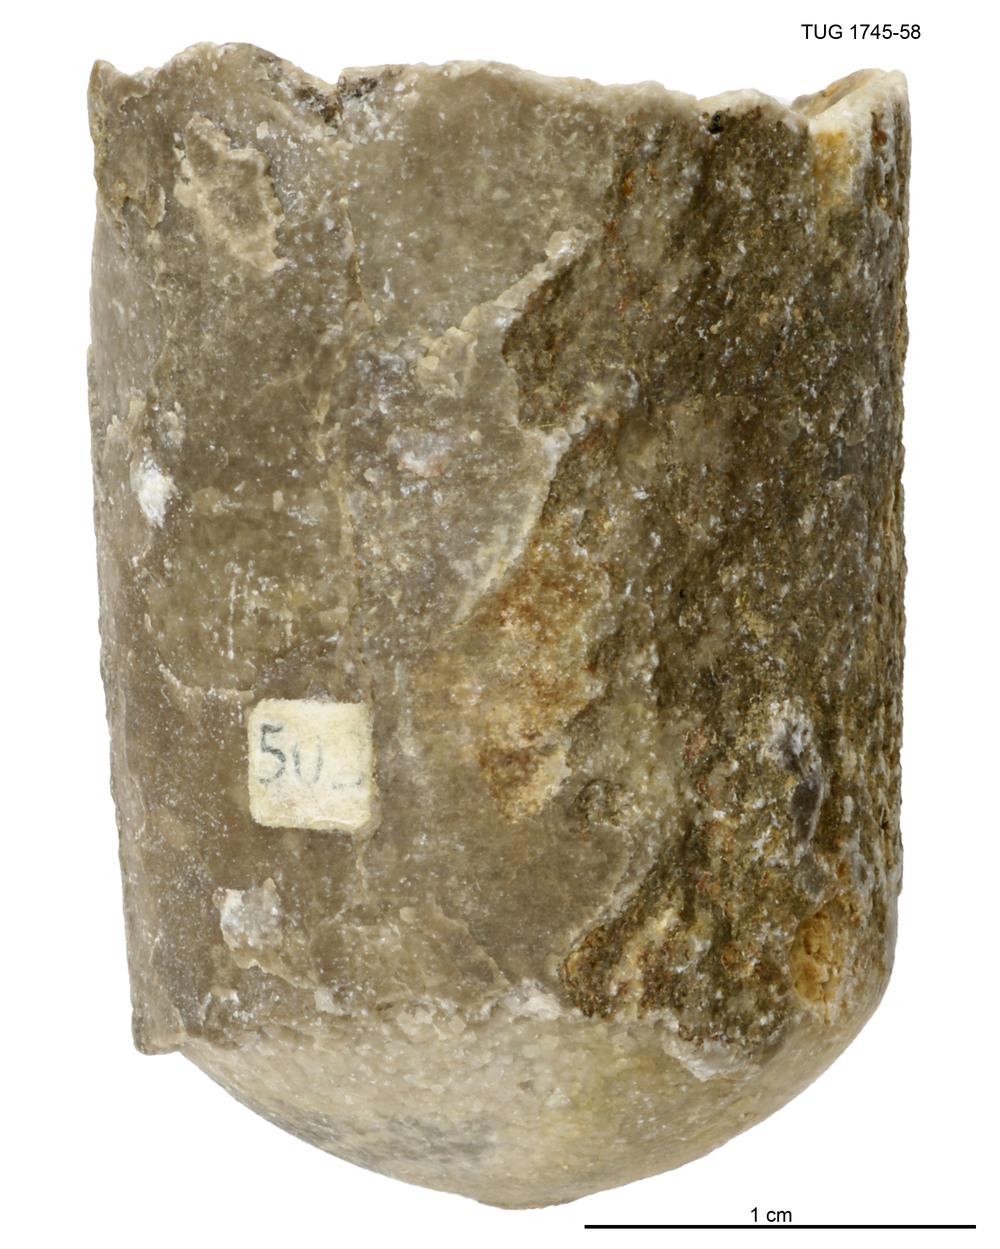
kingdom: Animalia
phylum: Mollusca
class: Cephalopoda
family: Armenoceratidae
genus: Armenoceras
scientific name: Armenoceras Orthoceras nummularius
